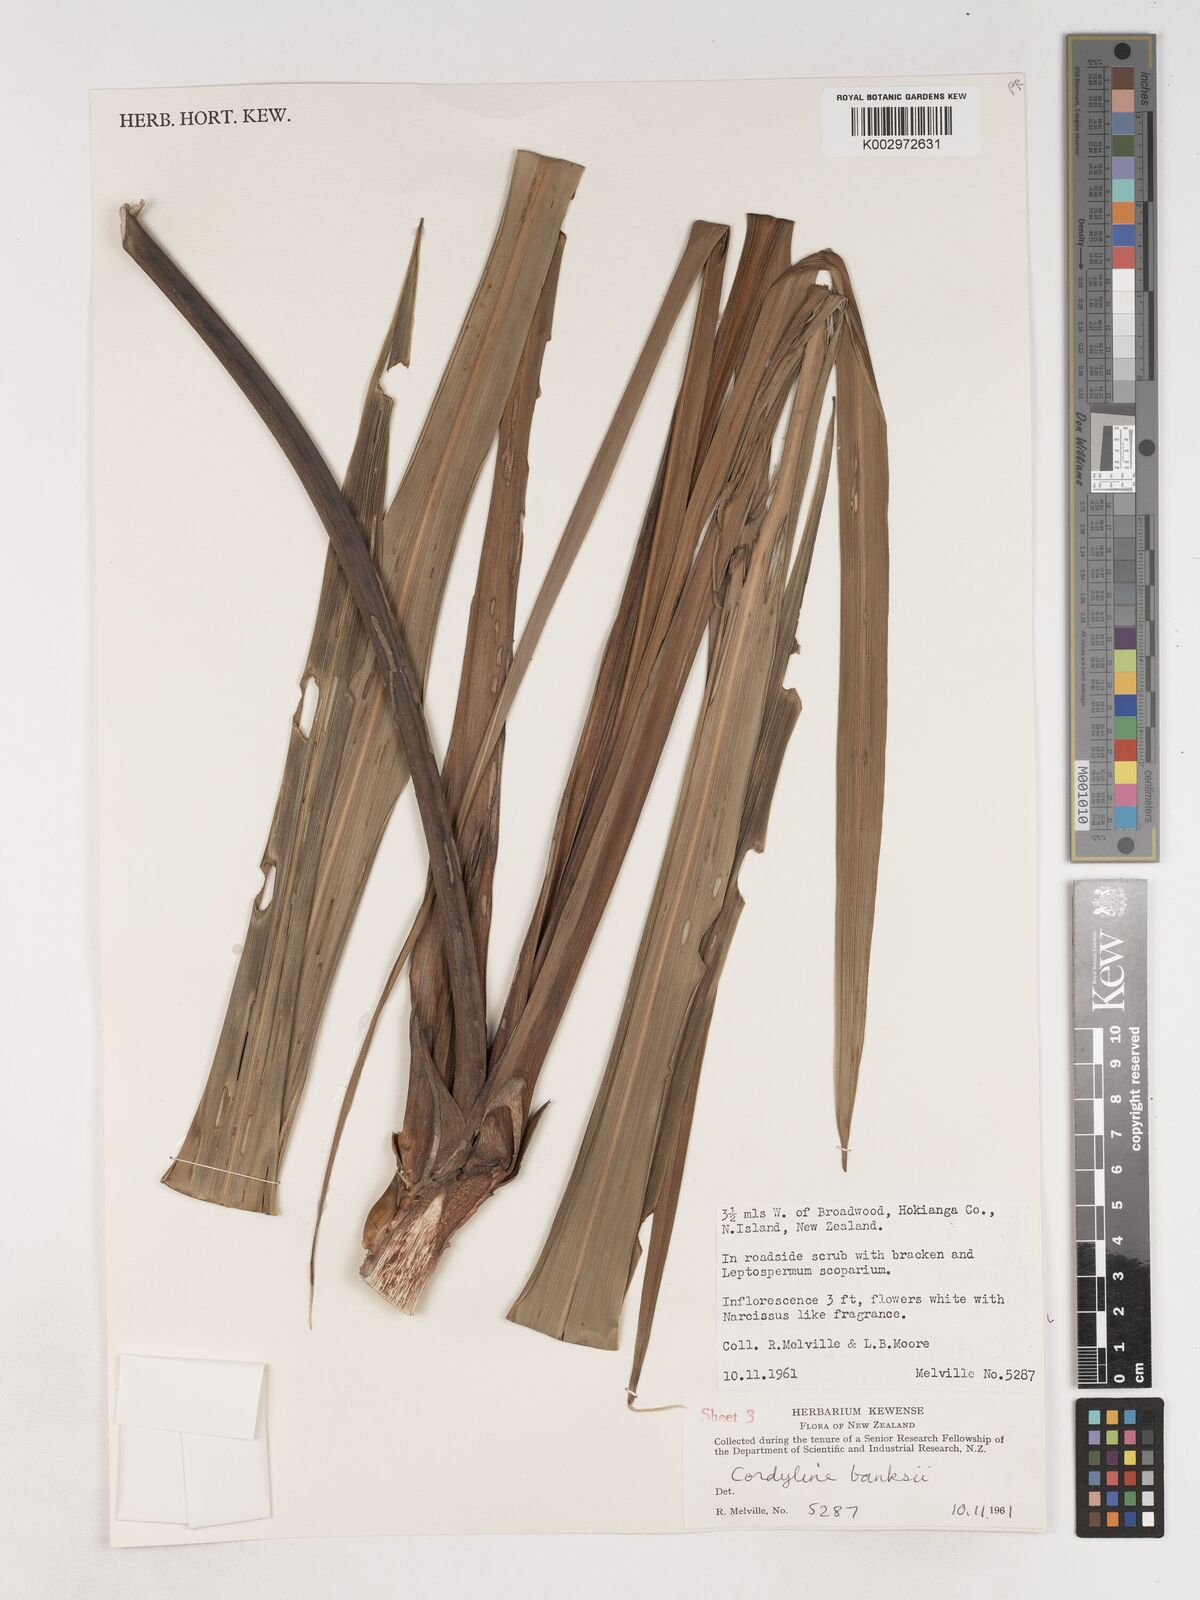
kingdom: Plantae
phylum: Tracheophyta
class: Liliopsida
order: Asparagales
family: Asparagaceae
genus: Cordyline
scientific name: Cordyline banksii
